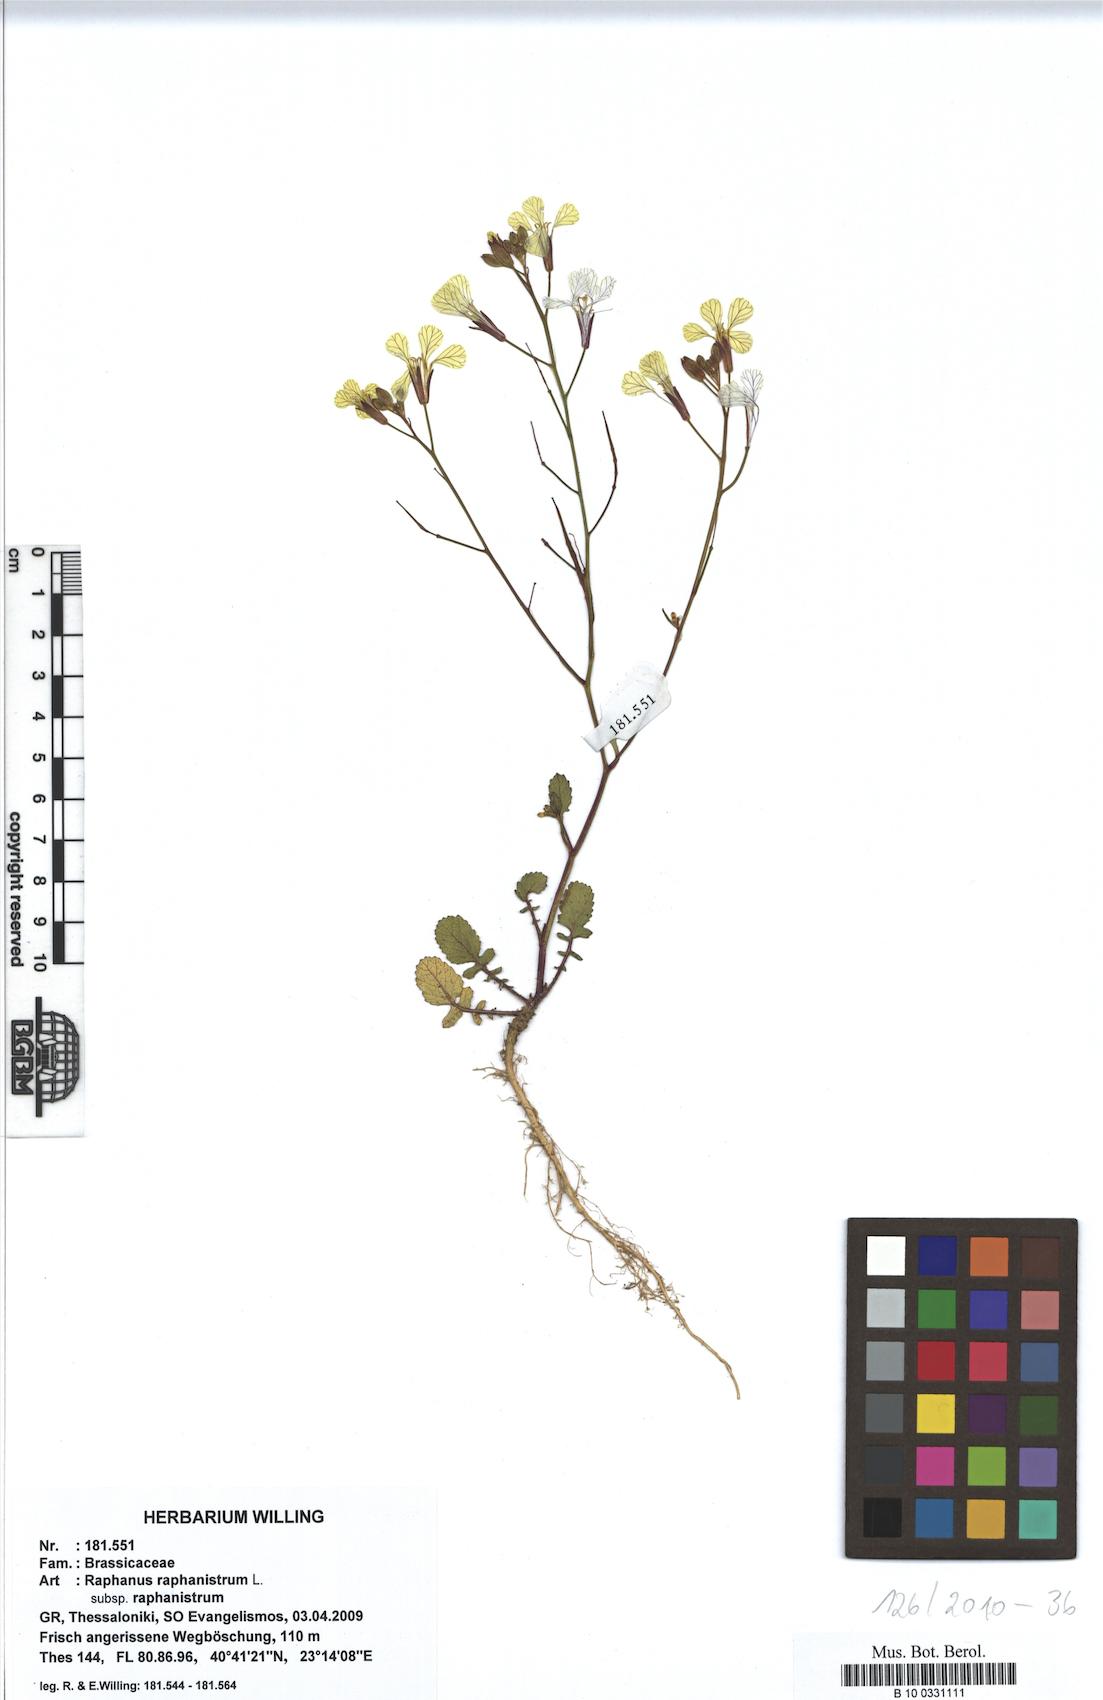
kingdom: Plantae
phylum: Tracheophyta
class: Magnoliopsida
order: Brassicales
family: Brassicaceae
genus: Raphanus
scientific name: Raphanus raphanistrum
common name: Wild radish
